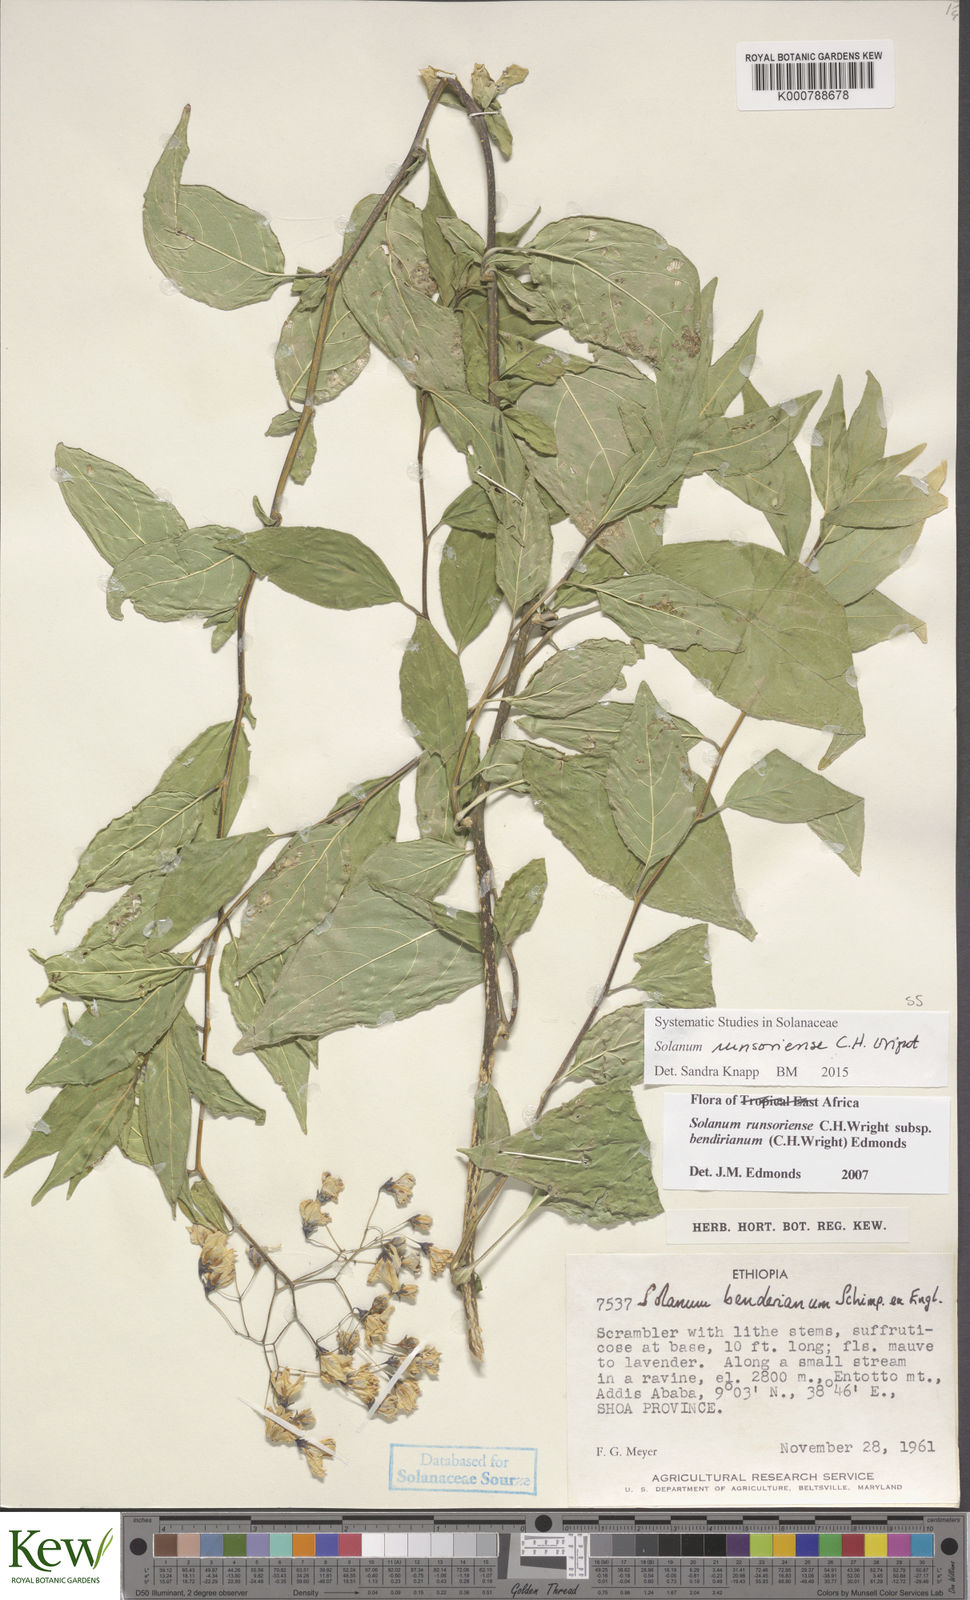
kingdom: Plantae
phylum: Tracheophyta
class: Magnoliopsida
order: Solanales
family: Solanaceae
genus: Solanum
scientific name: Solanum runsoriense
